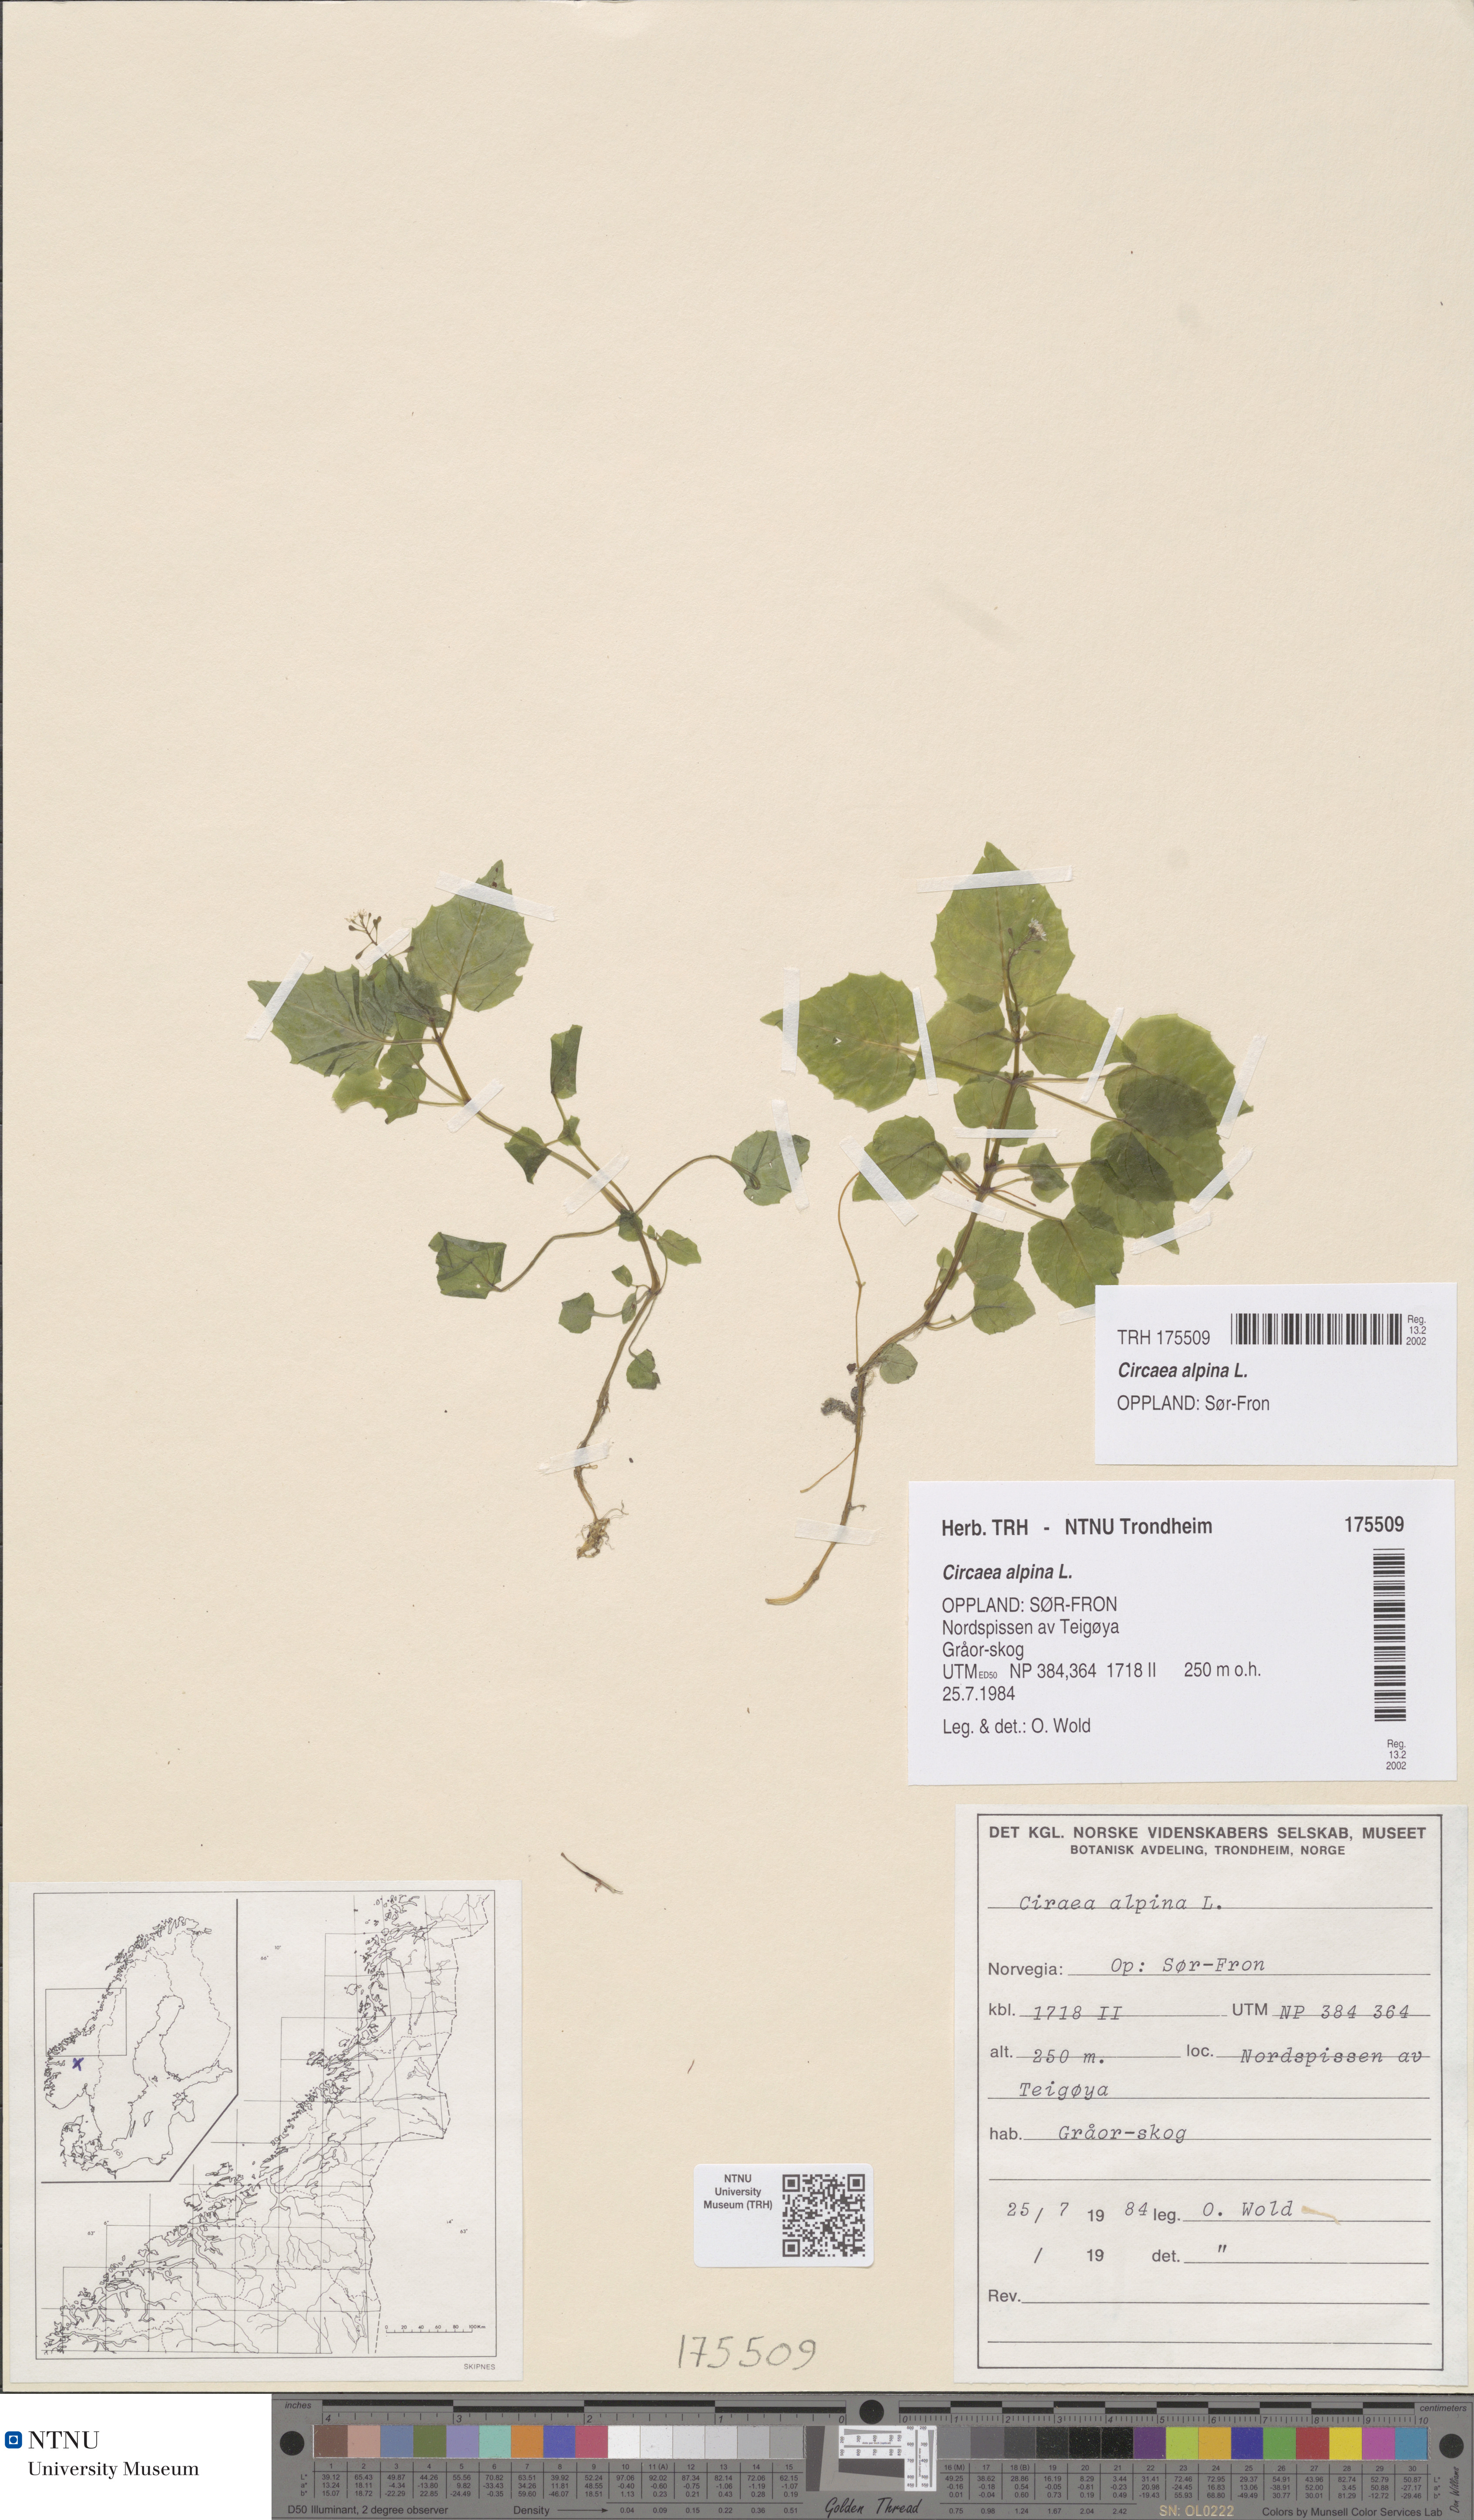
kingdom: Plantae
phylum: Tracheophyta
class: Magnoliopsida
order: Myrtales
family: Onagraceae
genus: Circaea
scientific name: Circaea alpina
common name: Alpine enchanter's-nightshade
